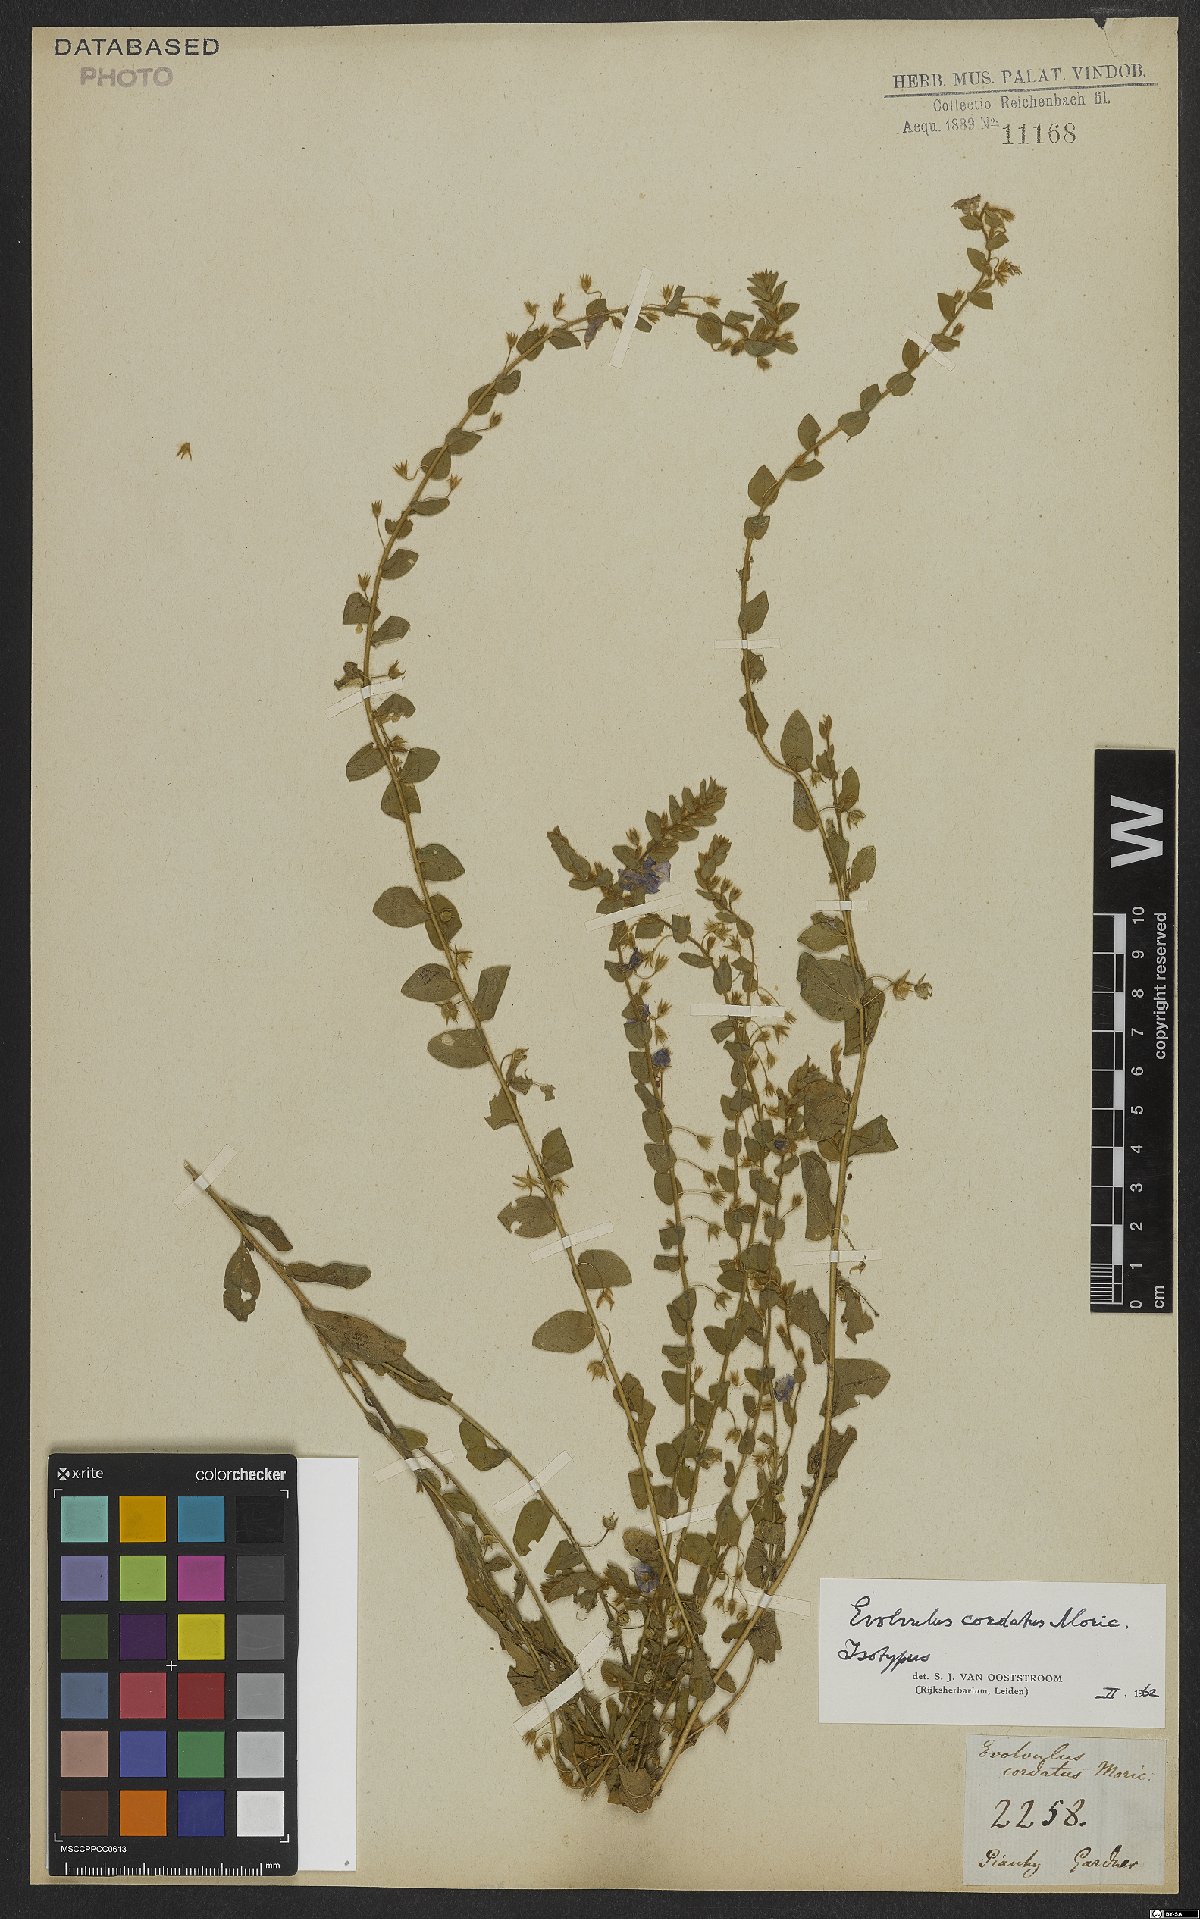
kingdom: Plantae
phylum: Tracheophyta
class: Magnoliopsida
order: Solanales
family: Convolvulaceae
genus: Evolvulus
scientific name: Evolvulus cordatus
